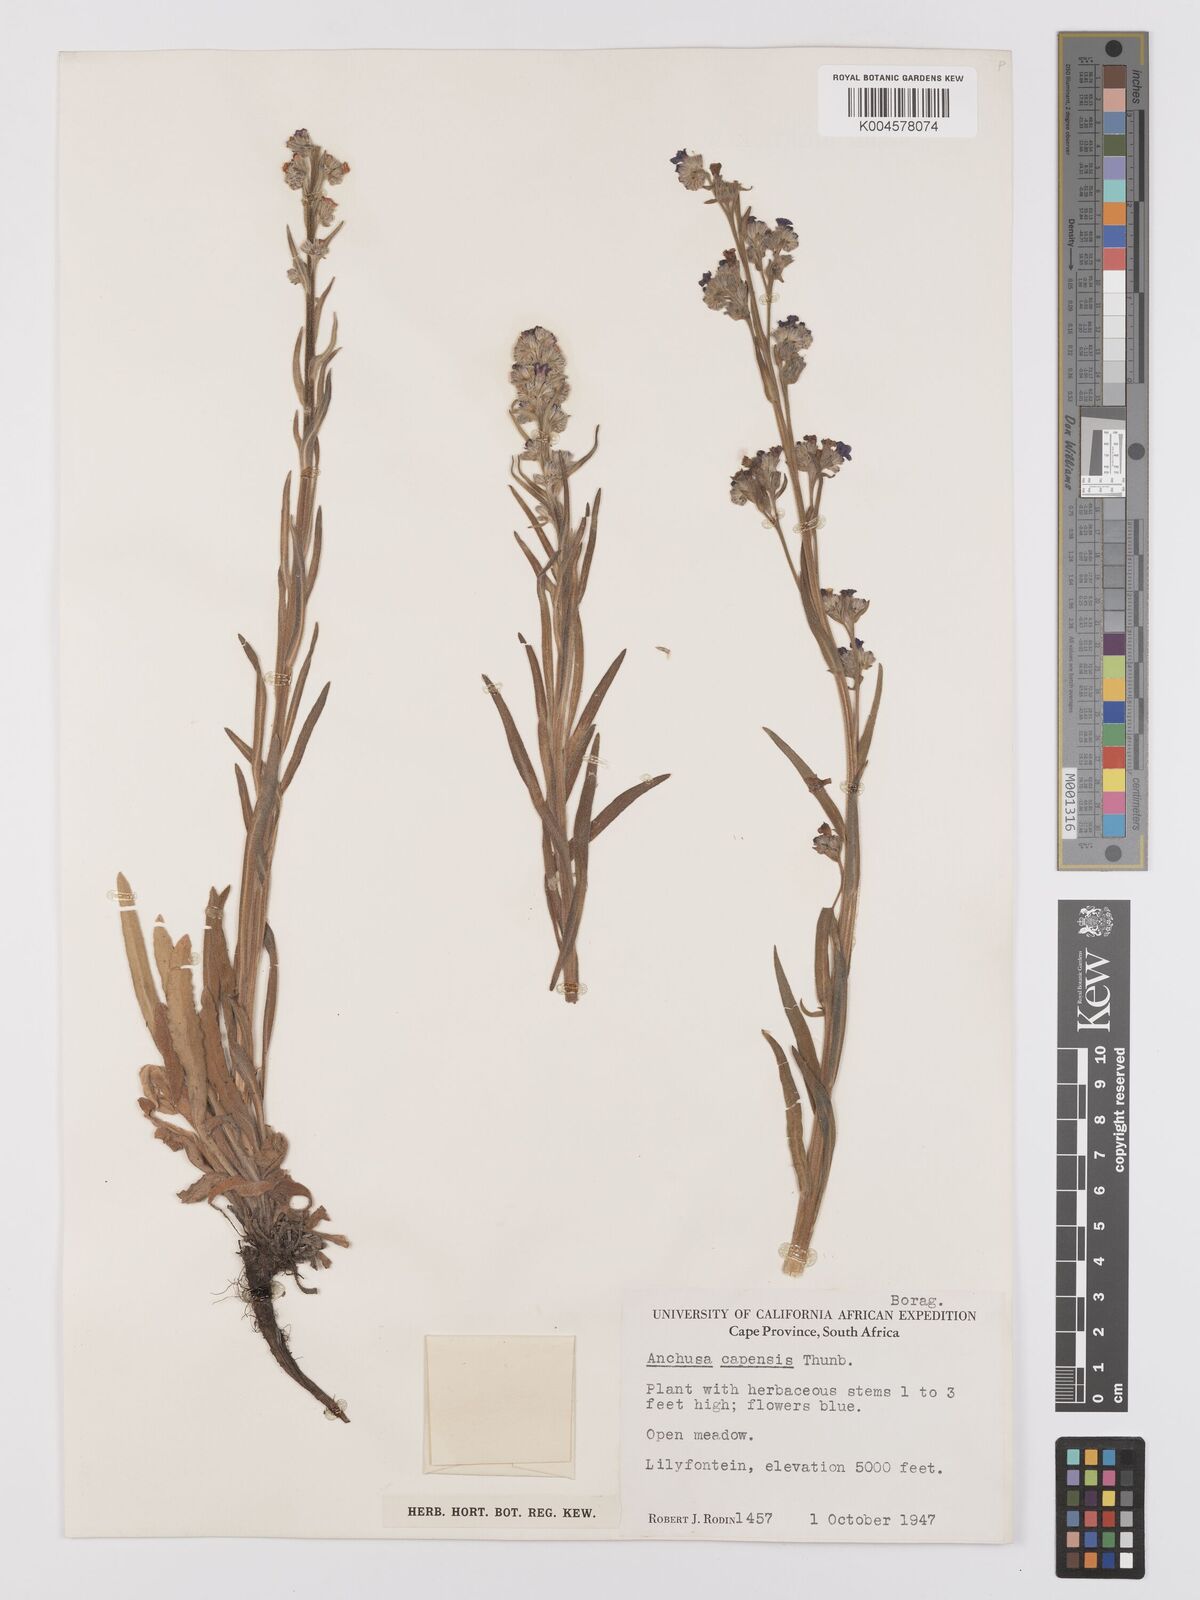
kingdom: Plantae
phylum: Tracheophyta
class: Magnoliopsida
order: Boraginales
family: Boraginaceae
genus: Anchusa
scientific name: Anchusa capensis
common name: Cape bugloss
